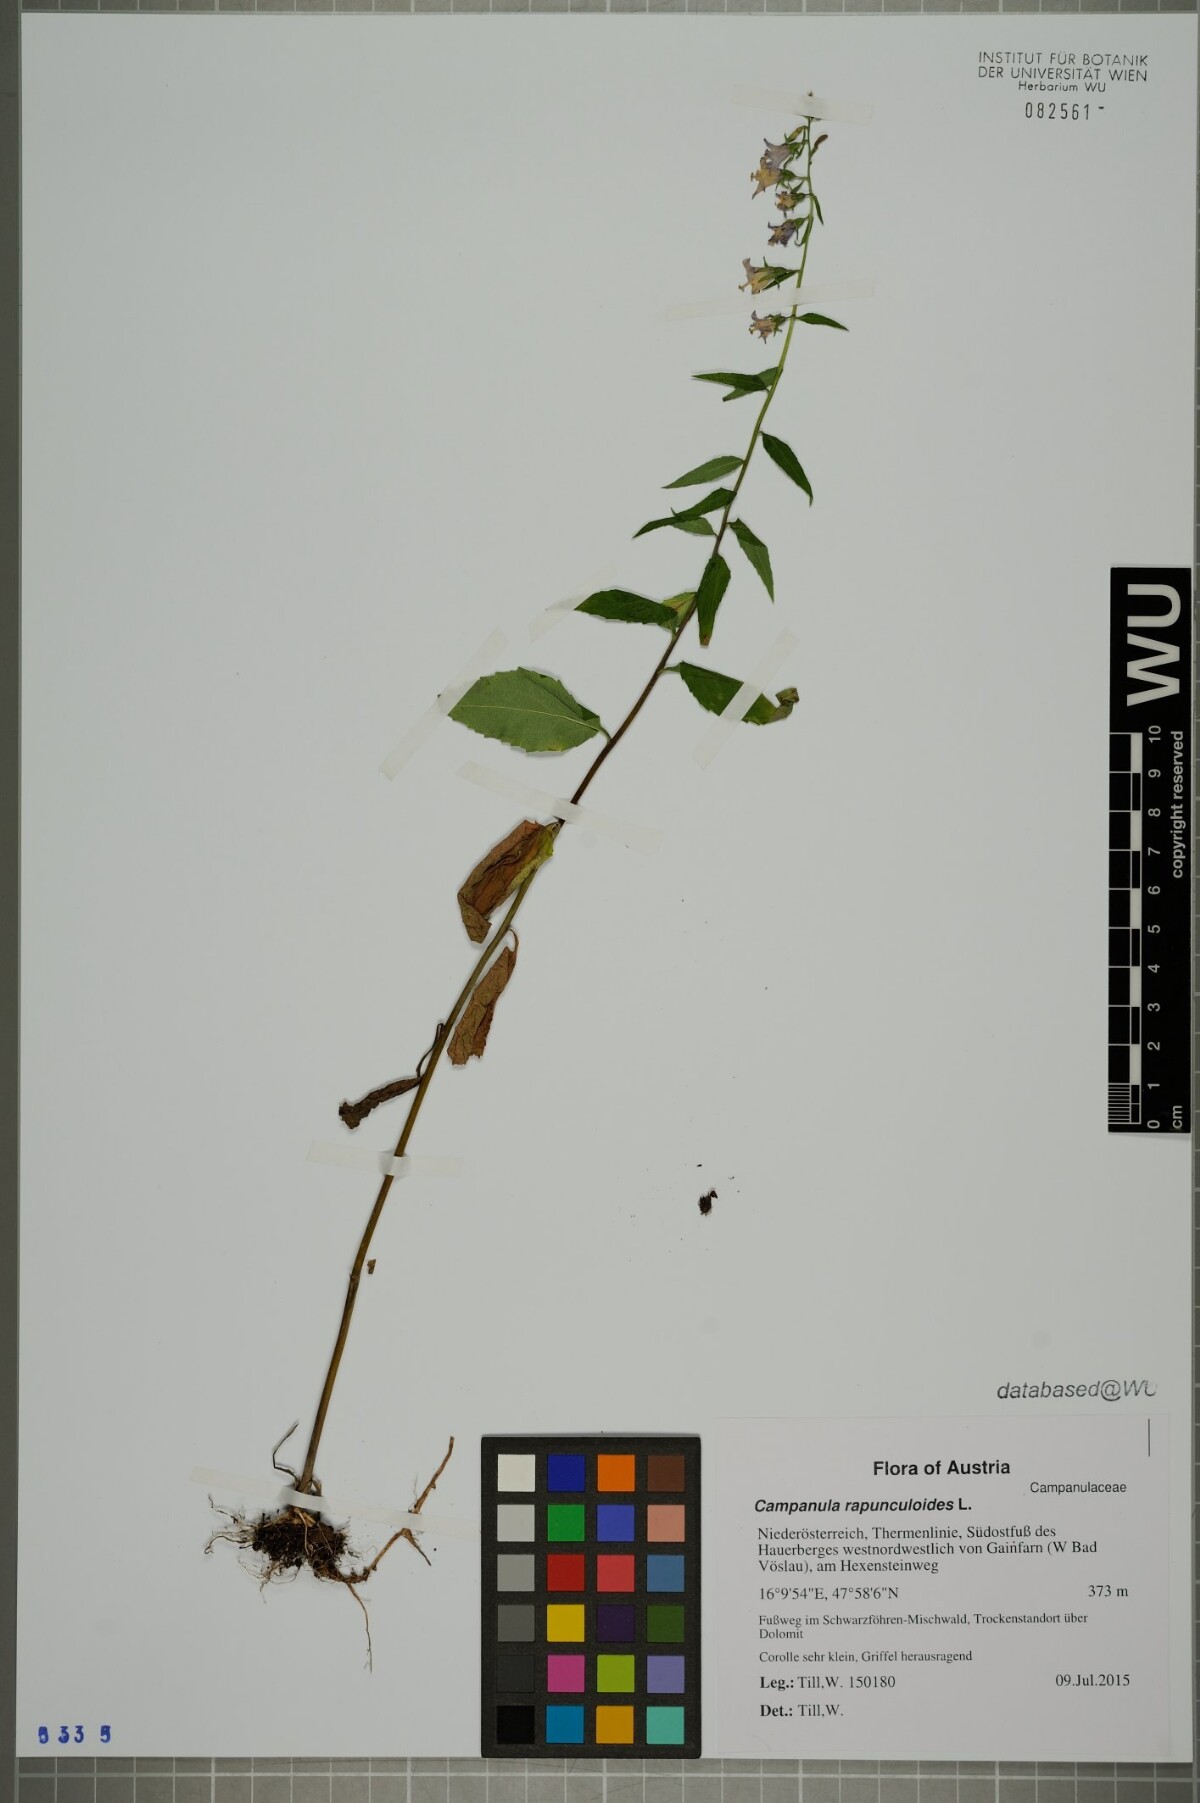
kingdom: Plantae
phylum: Tracheophyta
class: Magnoliopsida
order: Asterales
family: Campanulaceae
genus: Campanula
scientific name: Campanula rapunculoides
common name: Creeping bellflower
